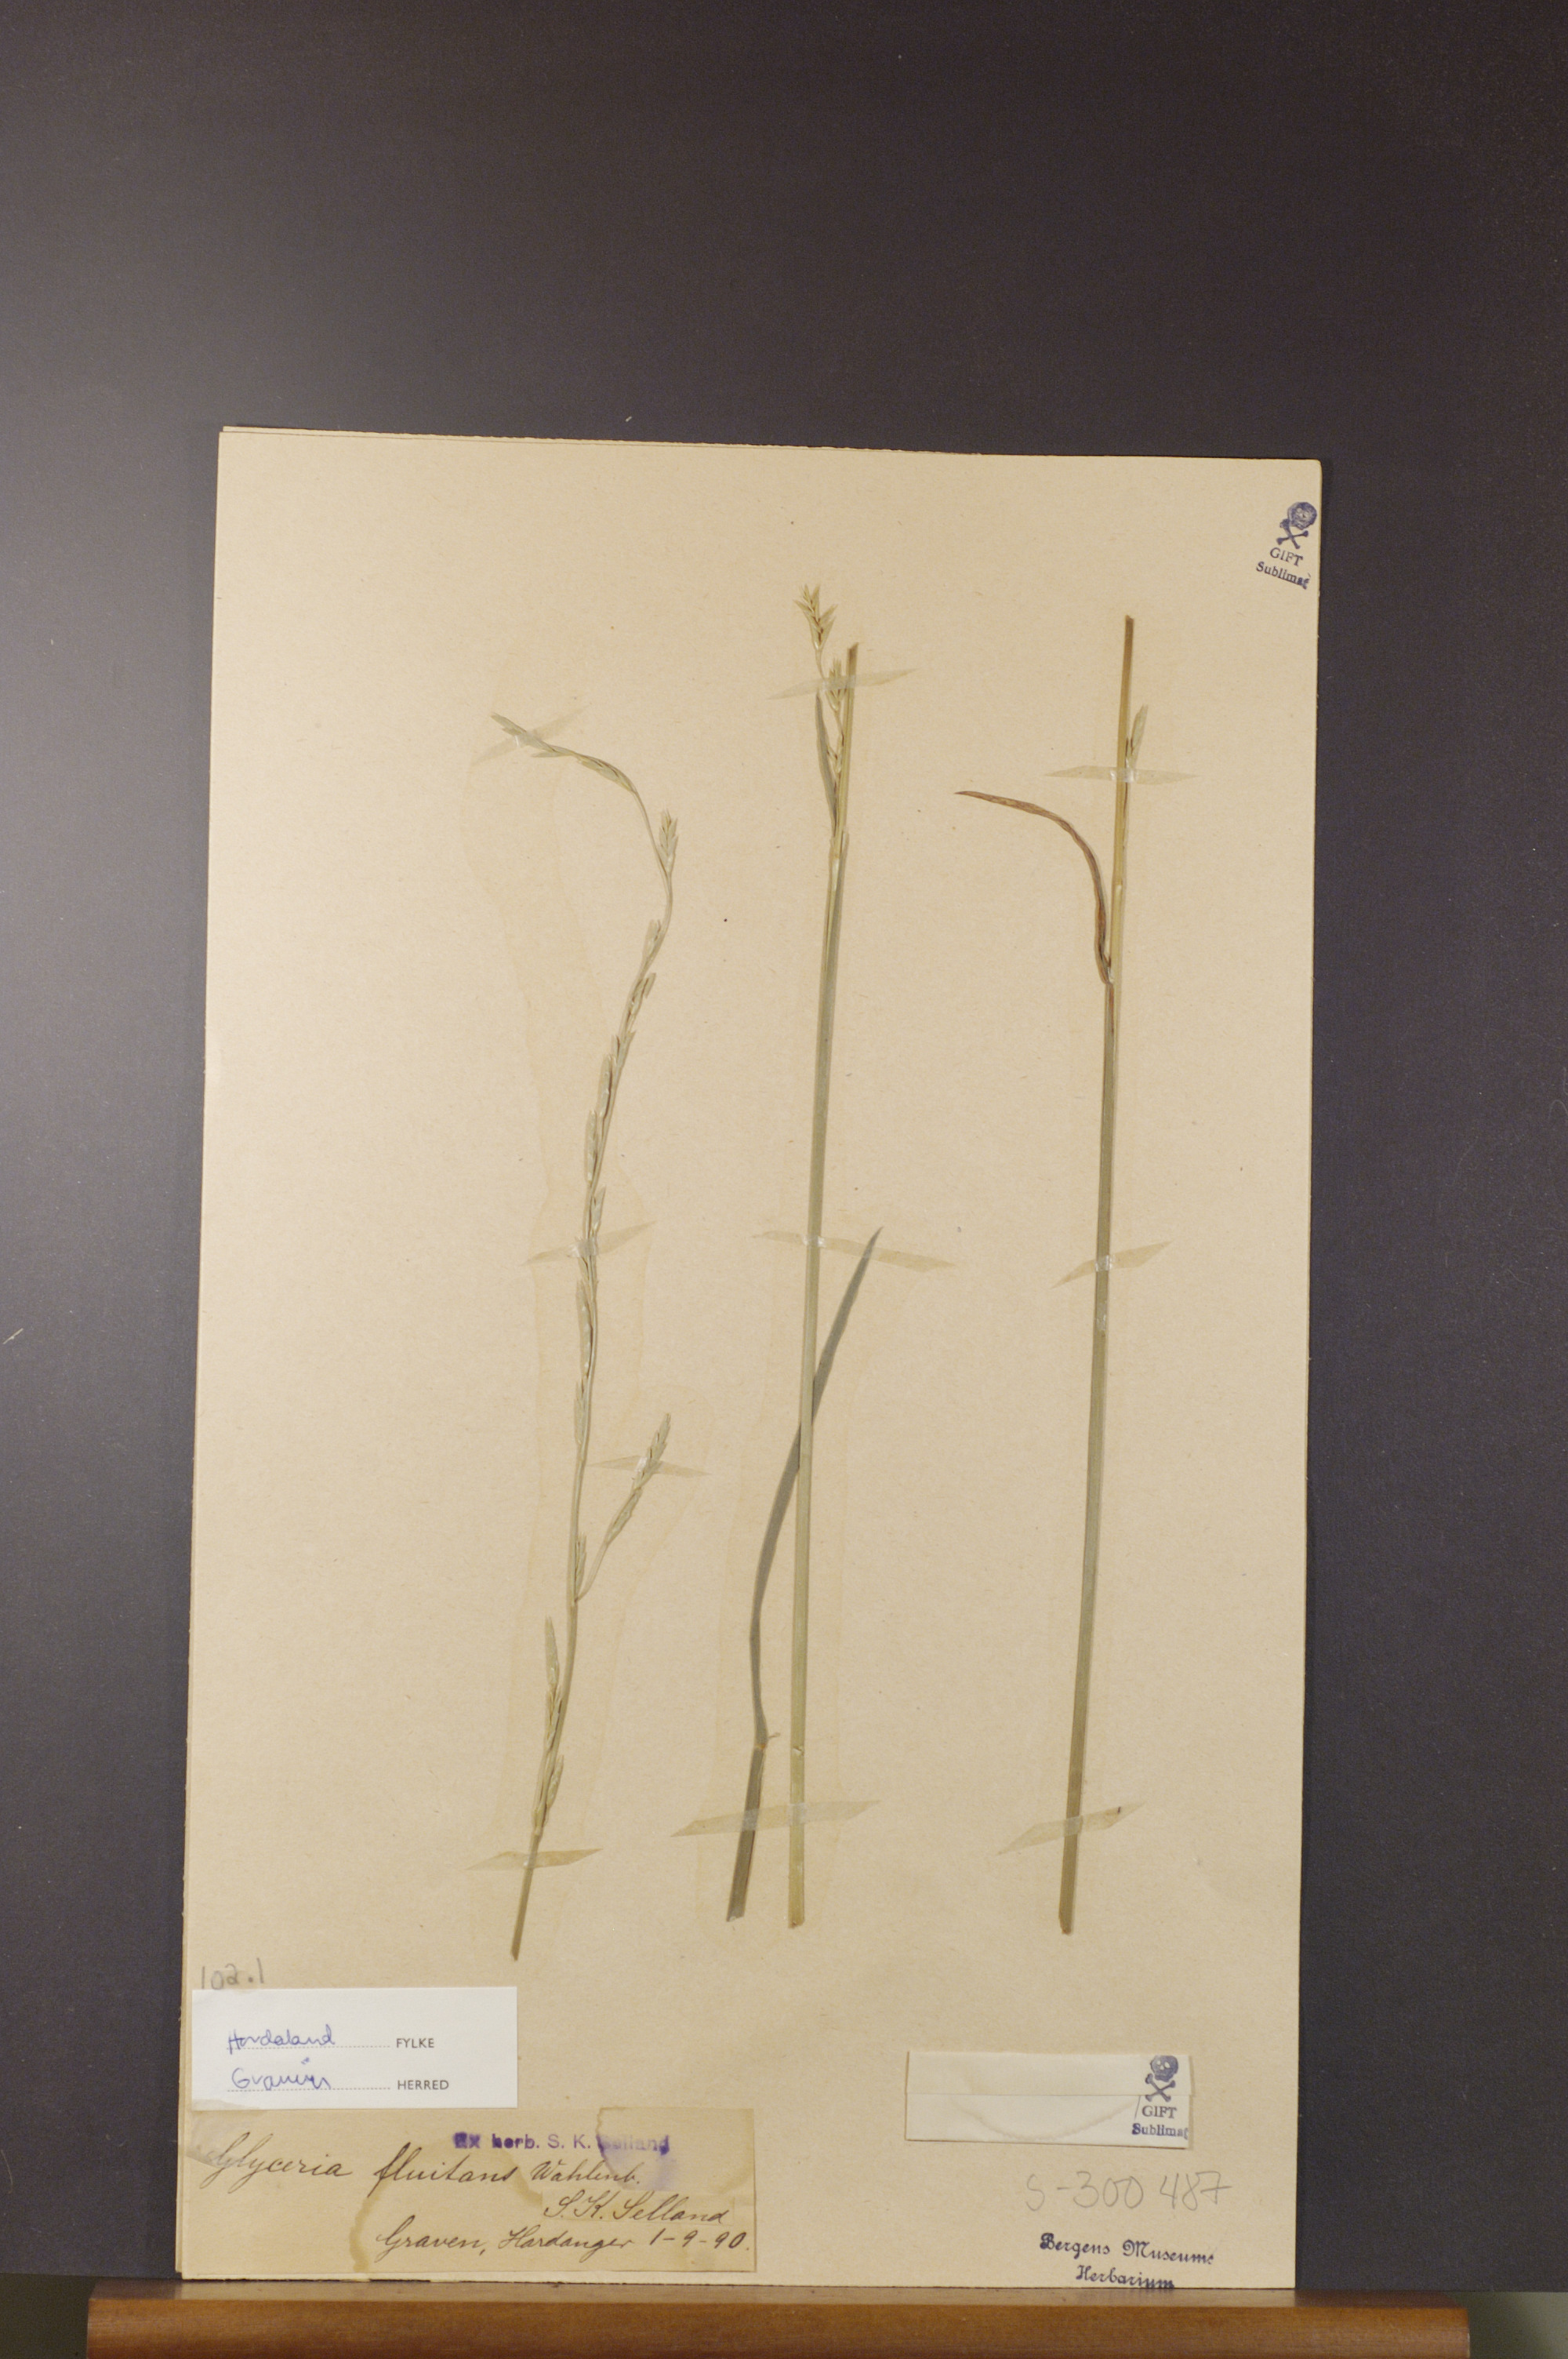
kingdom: Plantae
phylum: Tracheophyta
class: Liliopsida
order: Poales
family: Poaceae
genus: Glyceria
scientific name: Glyceria fluitans
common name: Floating sweet-grass
